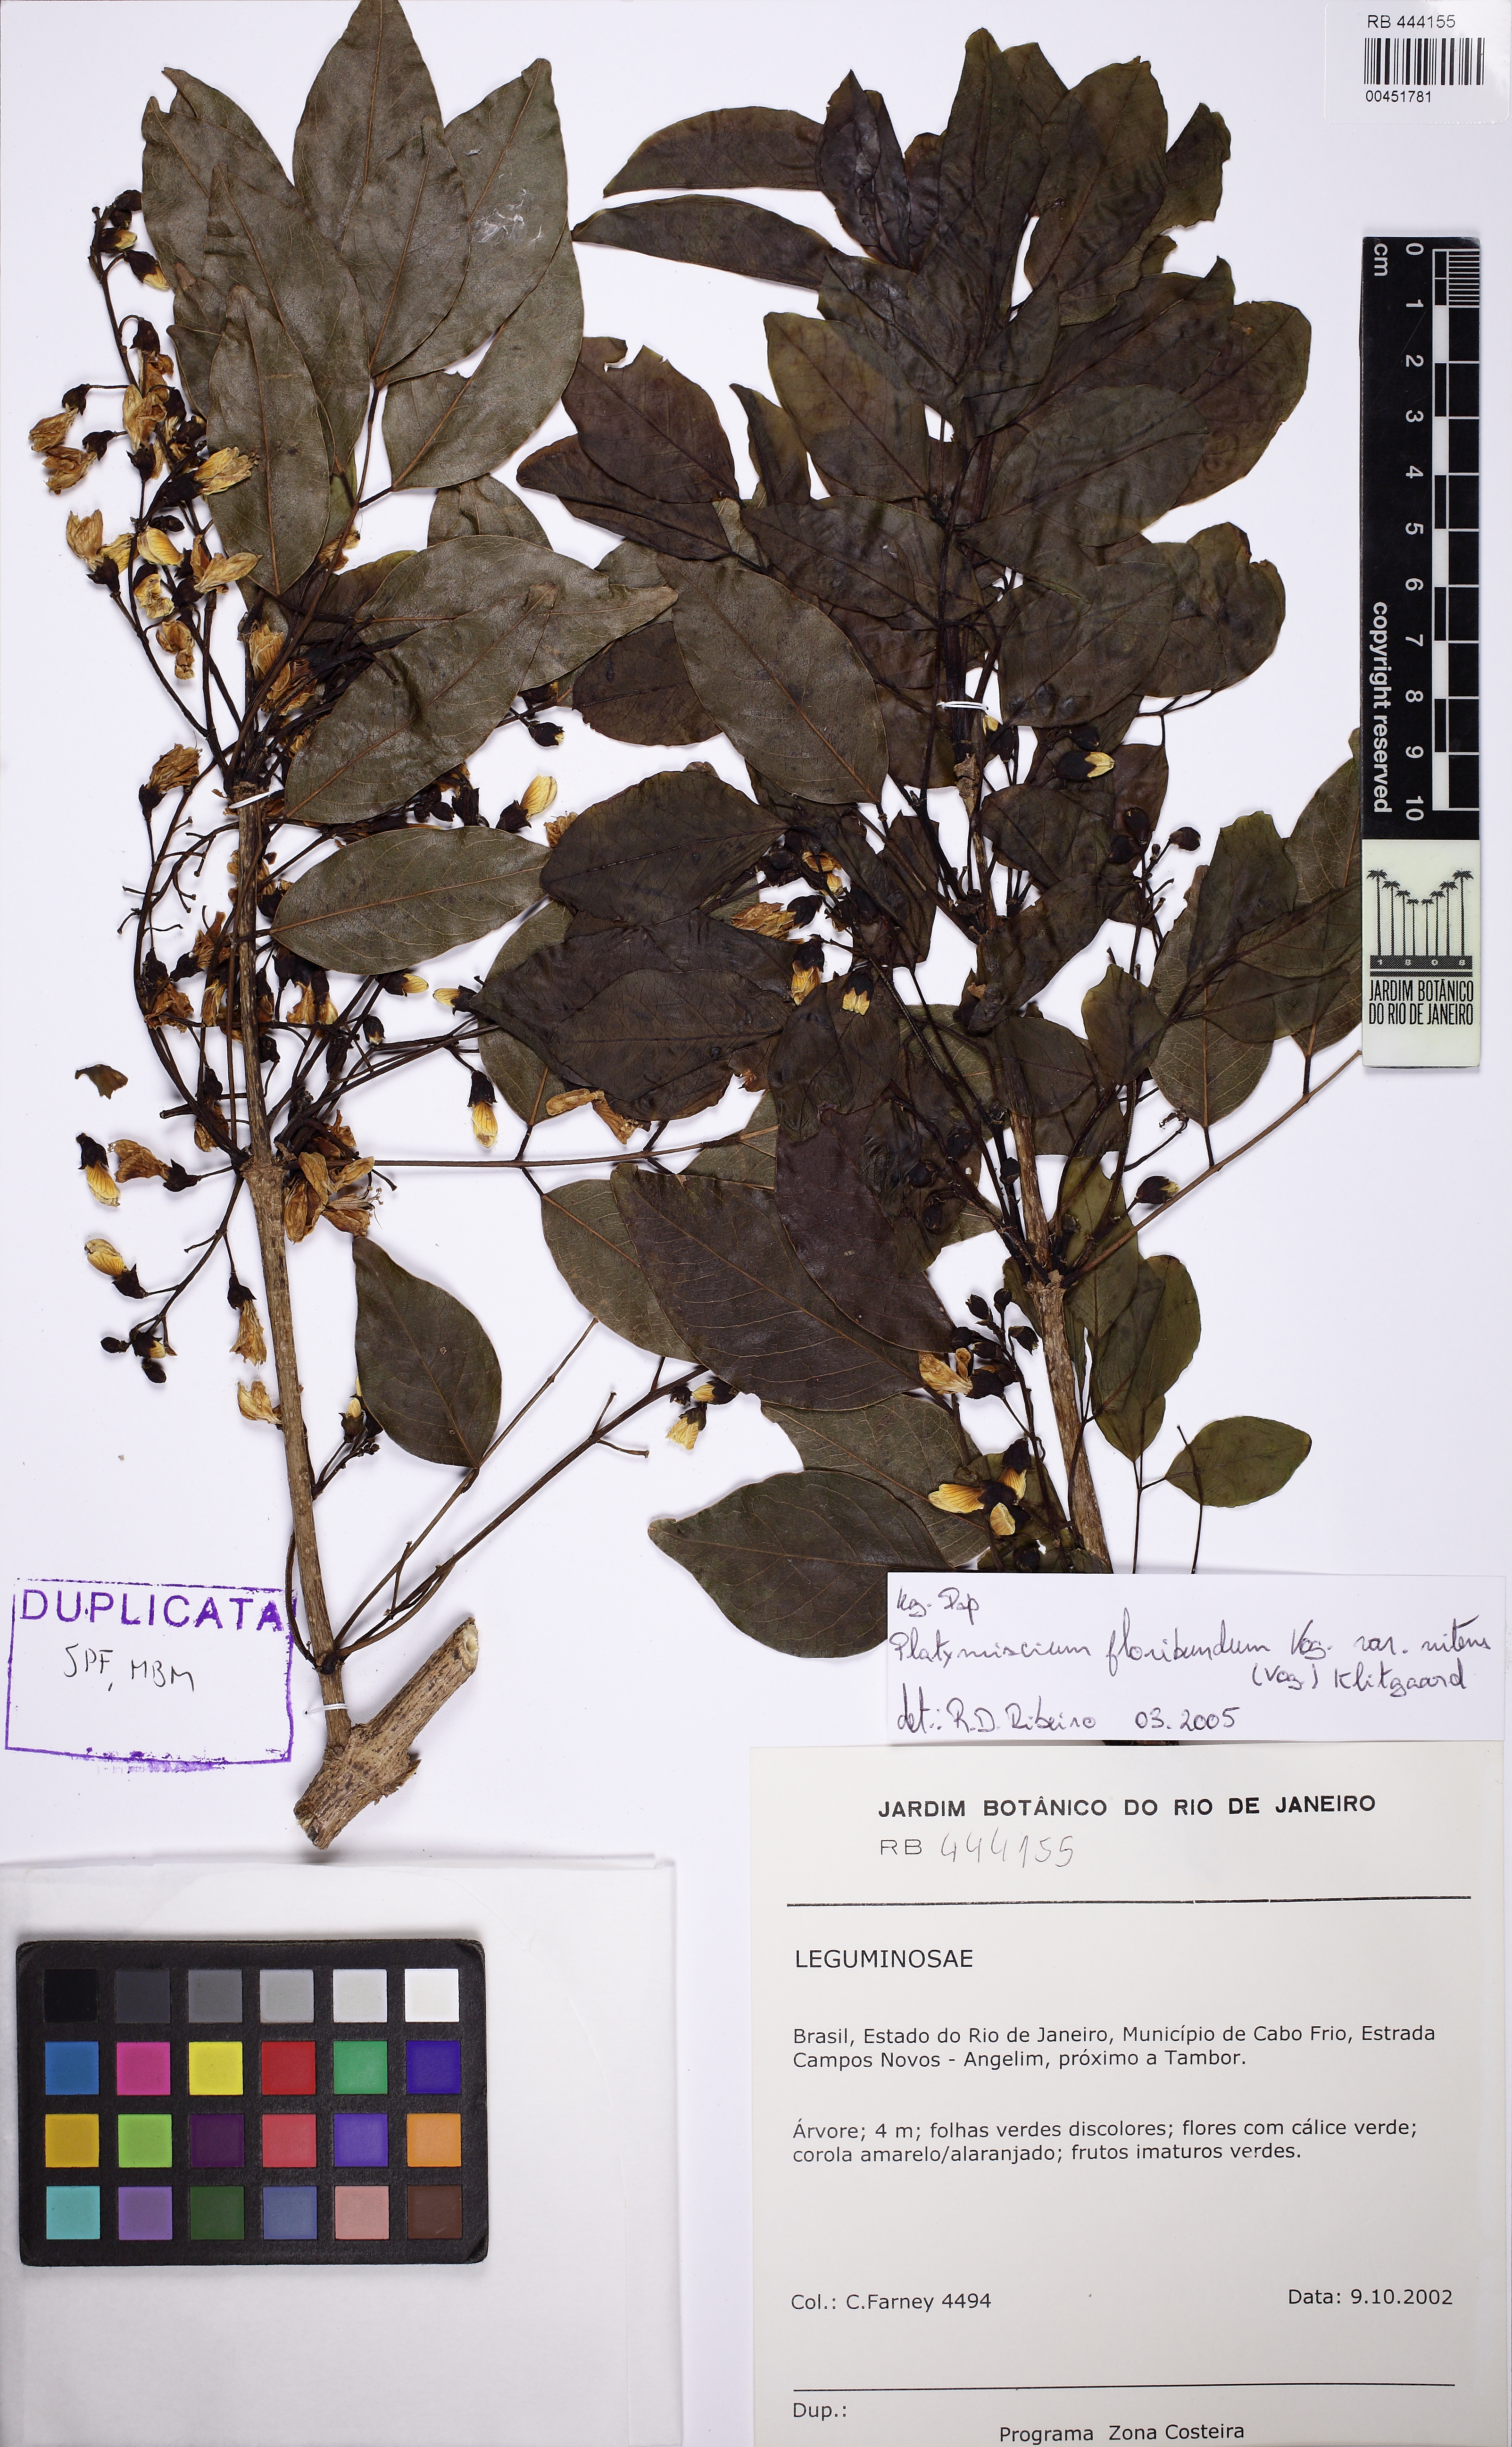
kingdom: Plantae
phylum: Tracheophyta
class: Magnoliopsida
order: Fabales
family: Fabaceae
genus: Platymiscium
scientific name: Platymiscium floribundum
